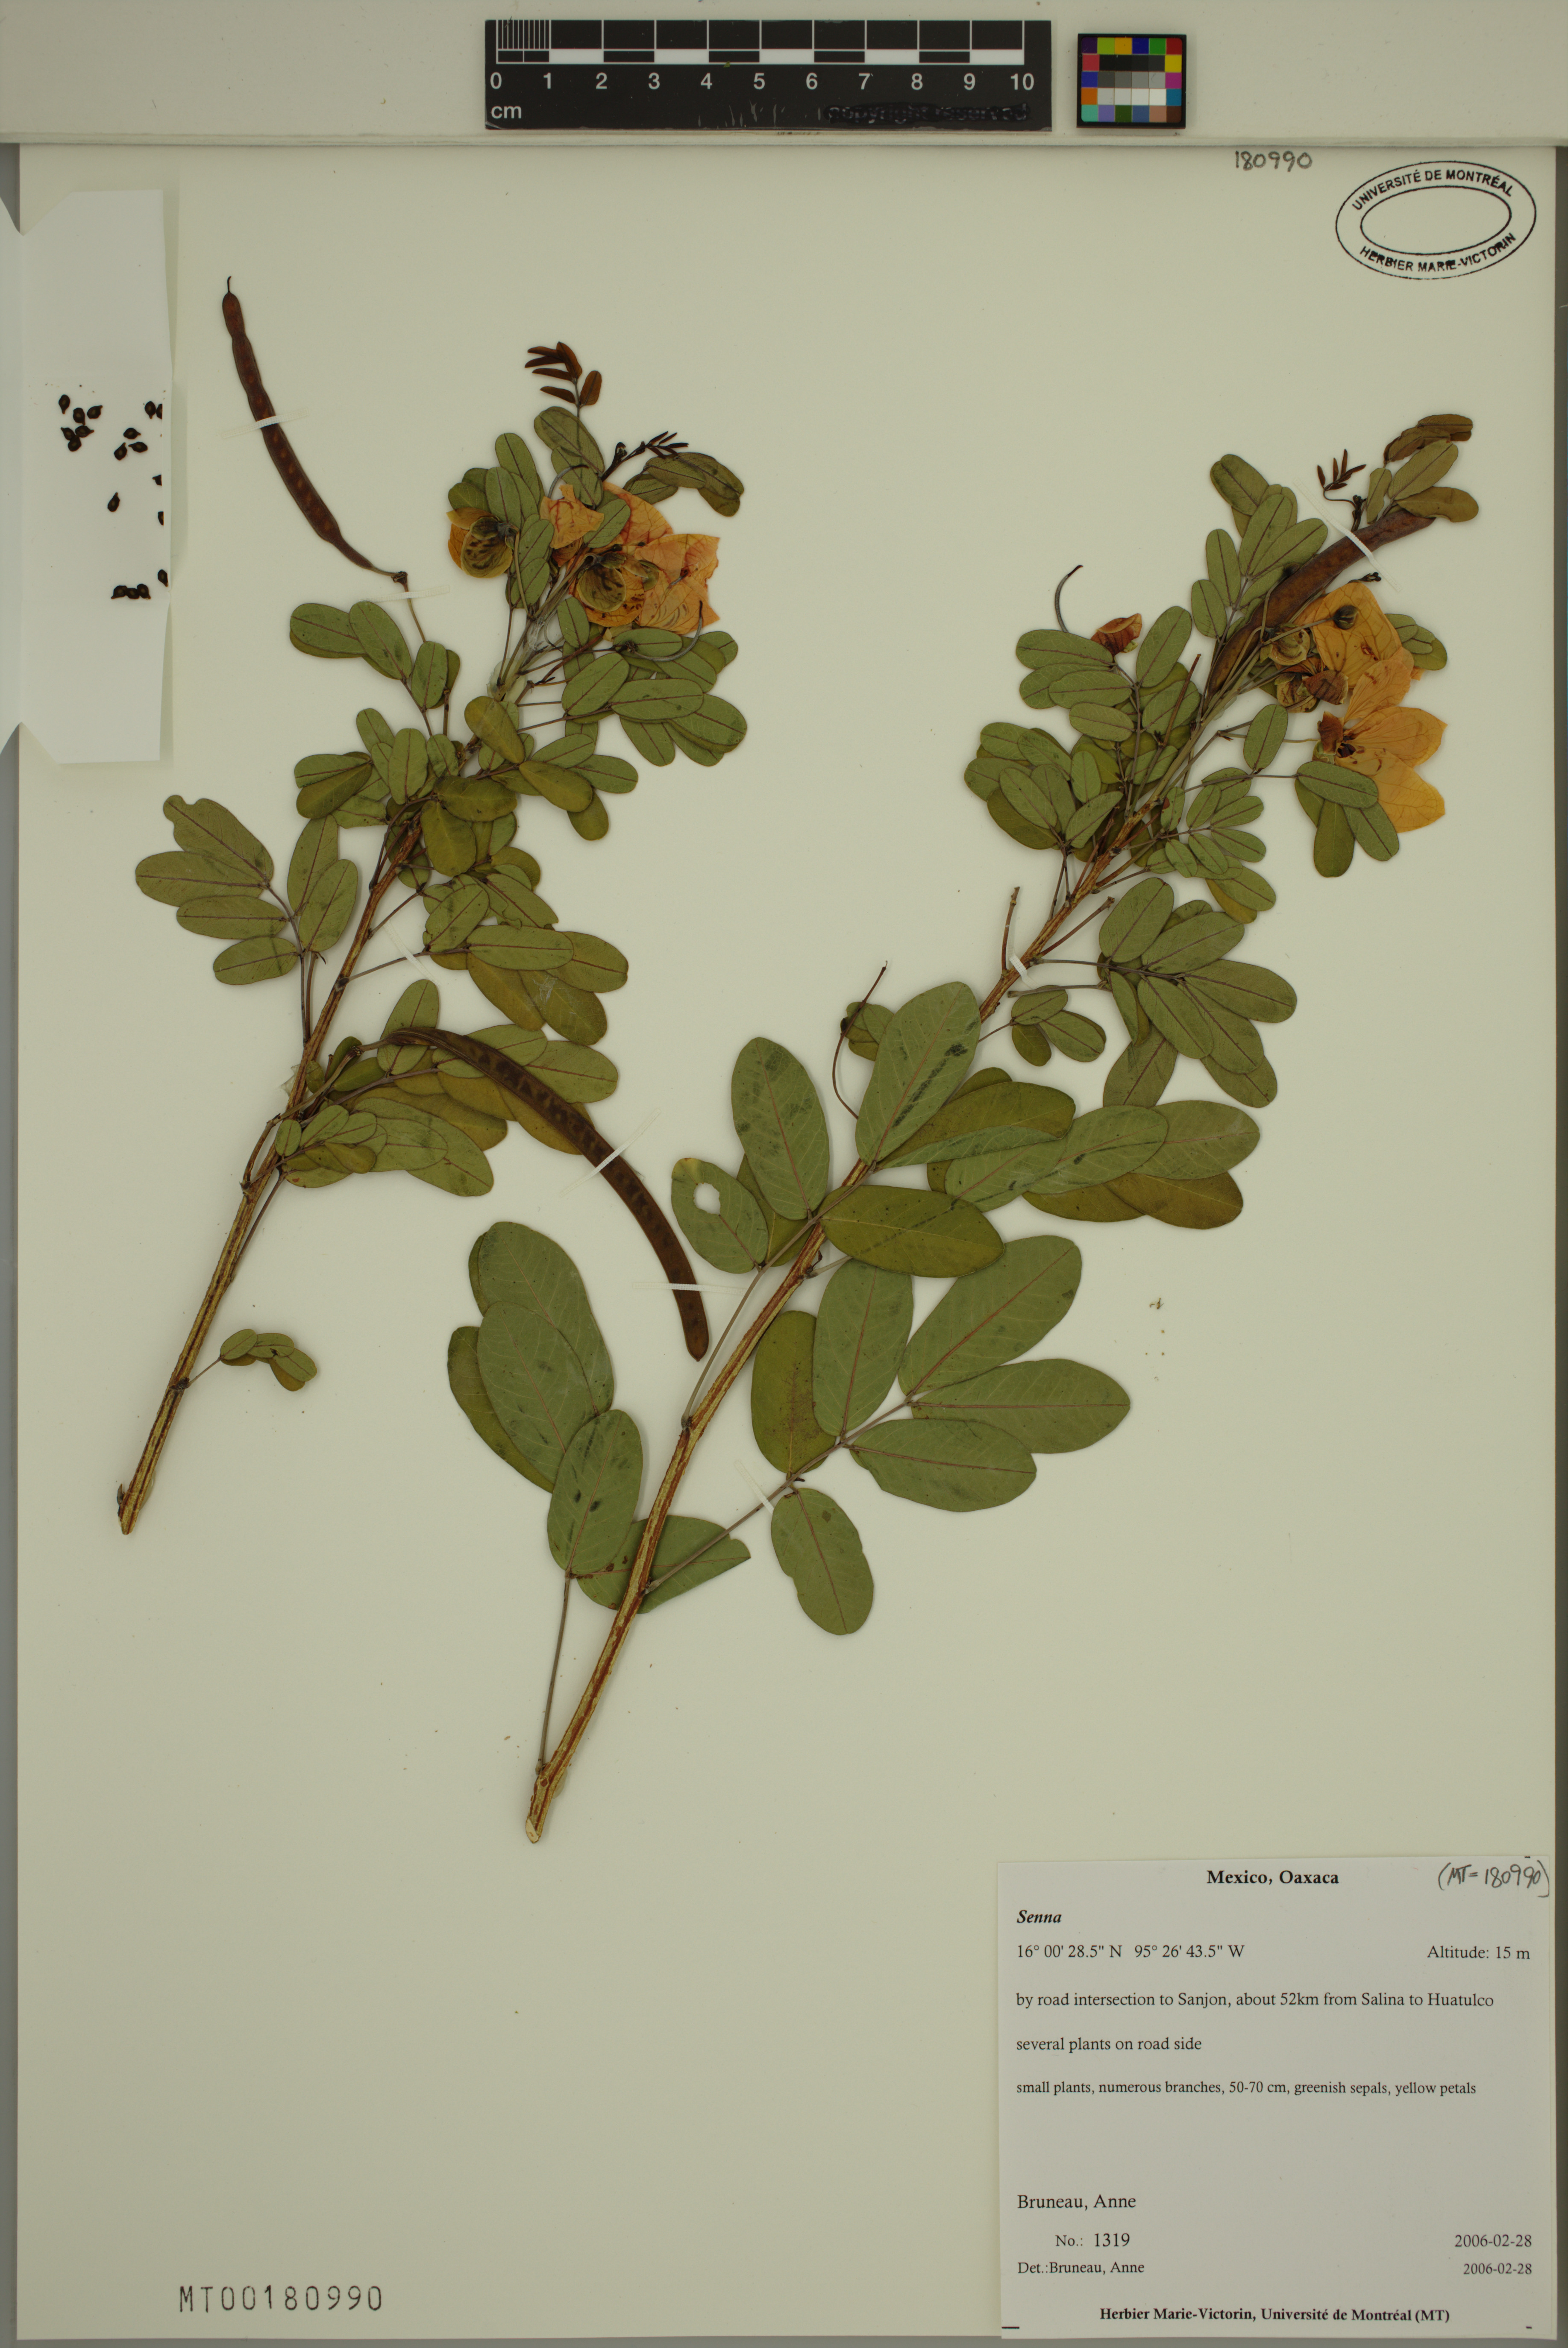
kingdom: Plantae
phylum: Tracheophyta
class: Magnoliopsida
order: Fabales
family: Fabaceae
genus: Senna
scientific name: Senna
